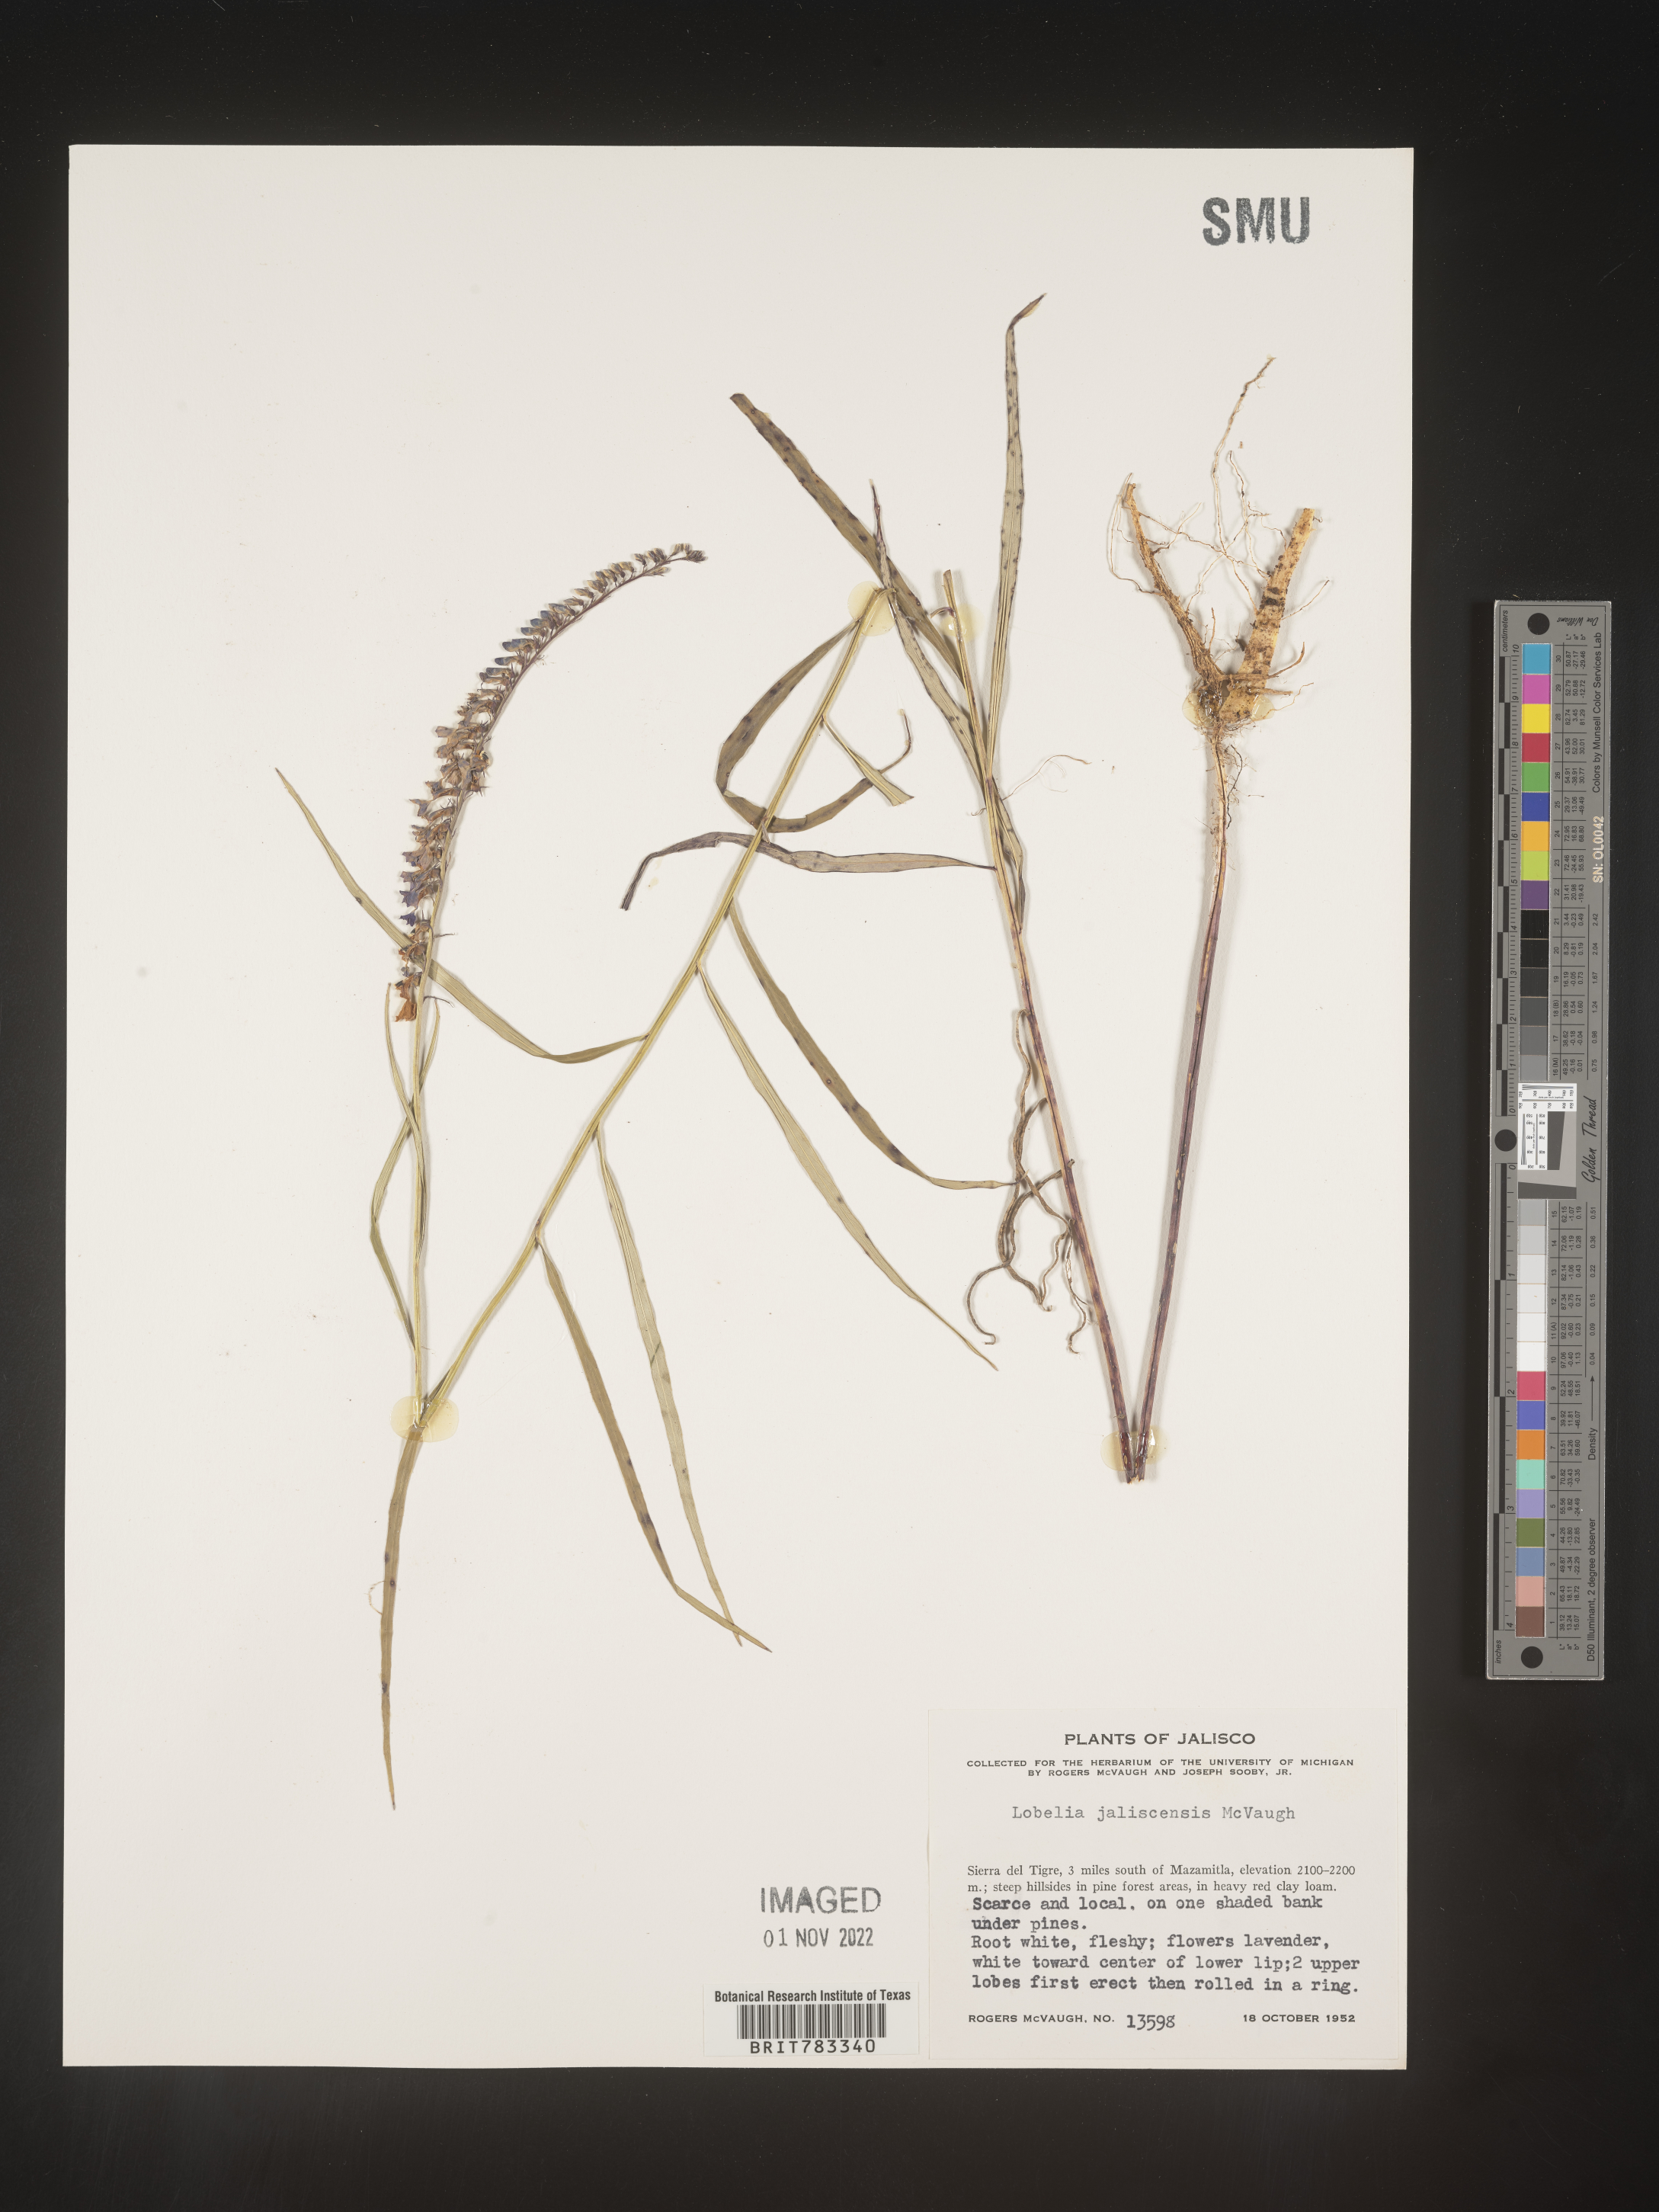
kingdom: Plantae
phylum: Tracheophyta
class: Magnoliopsida
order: Asterales
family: Campanulaceae
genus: Lobelia
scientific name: Lobelia
